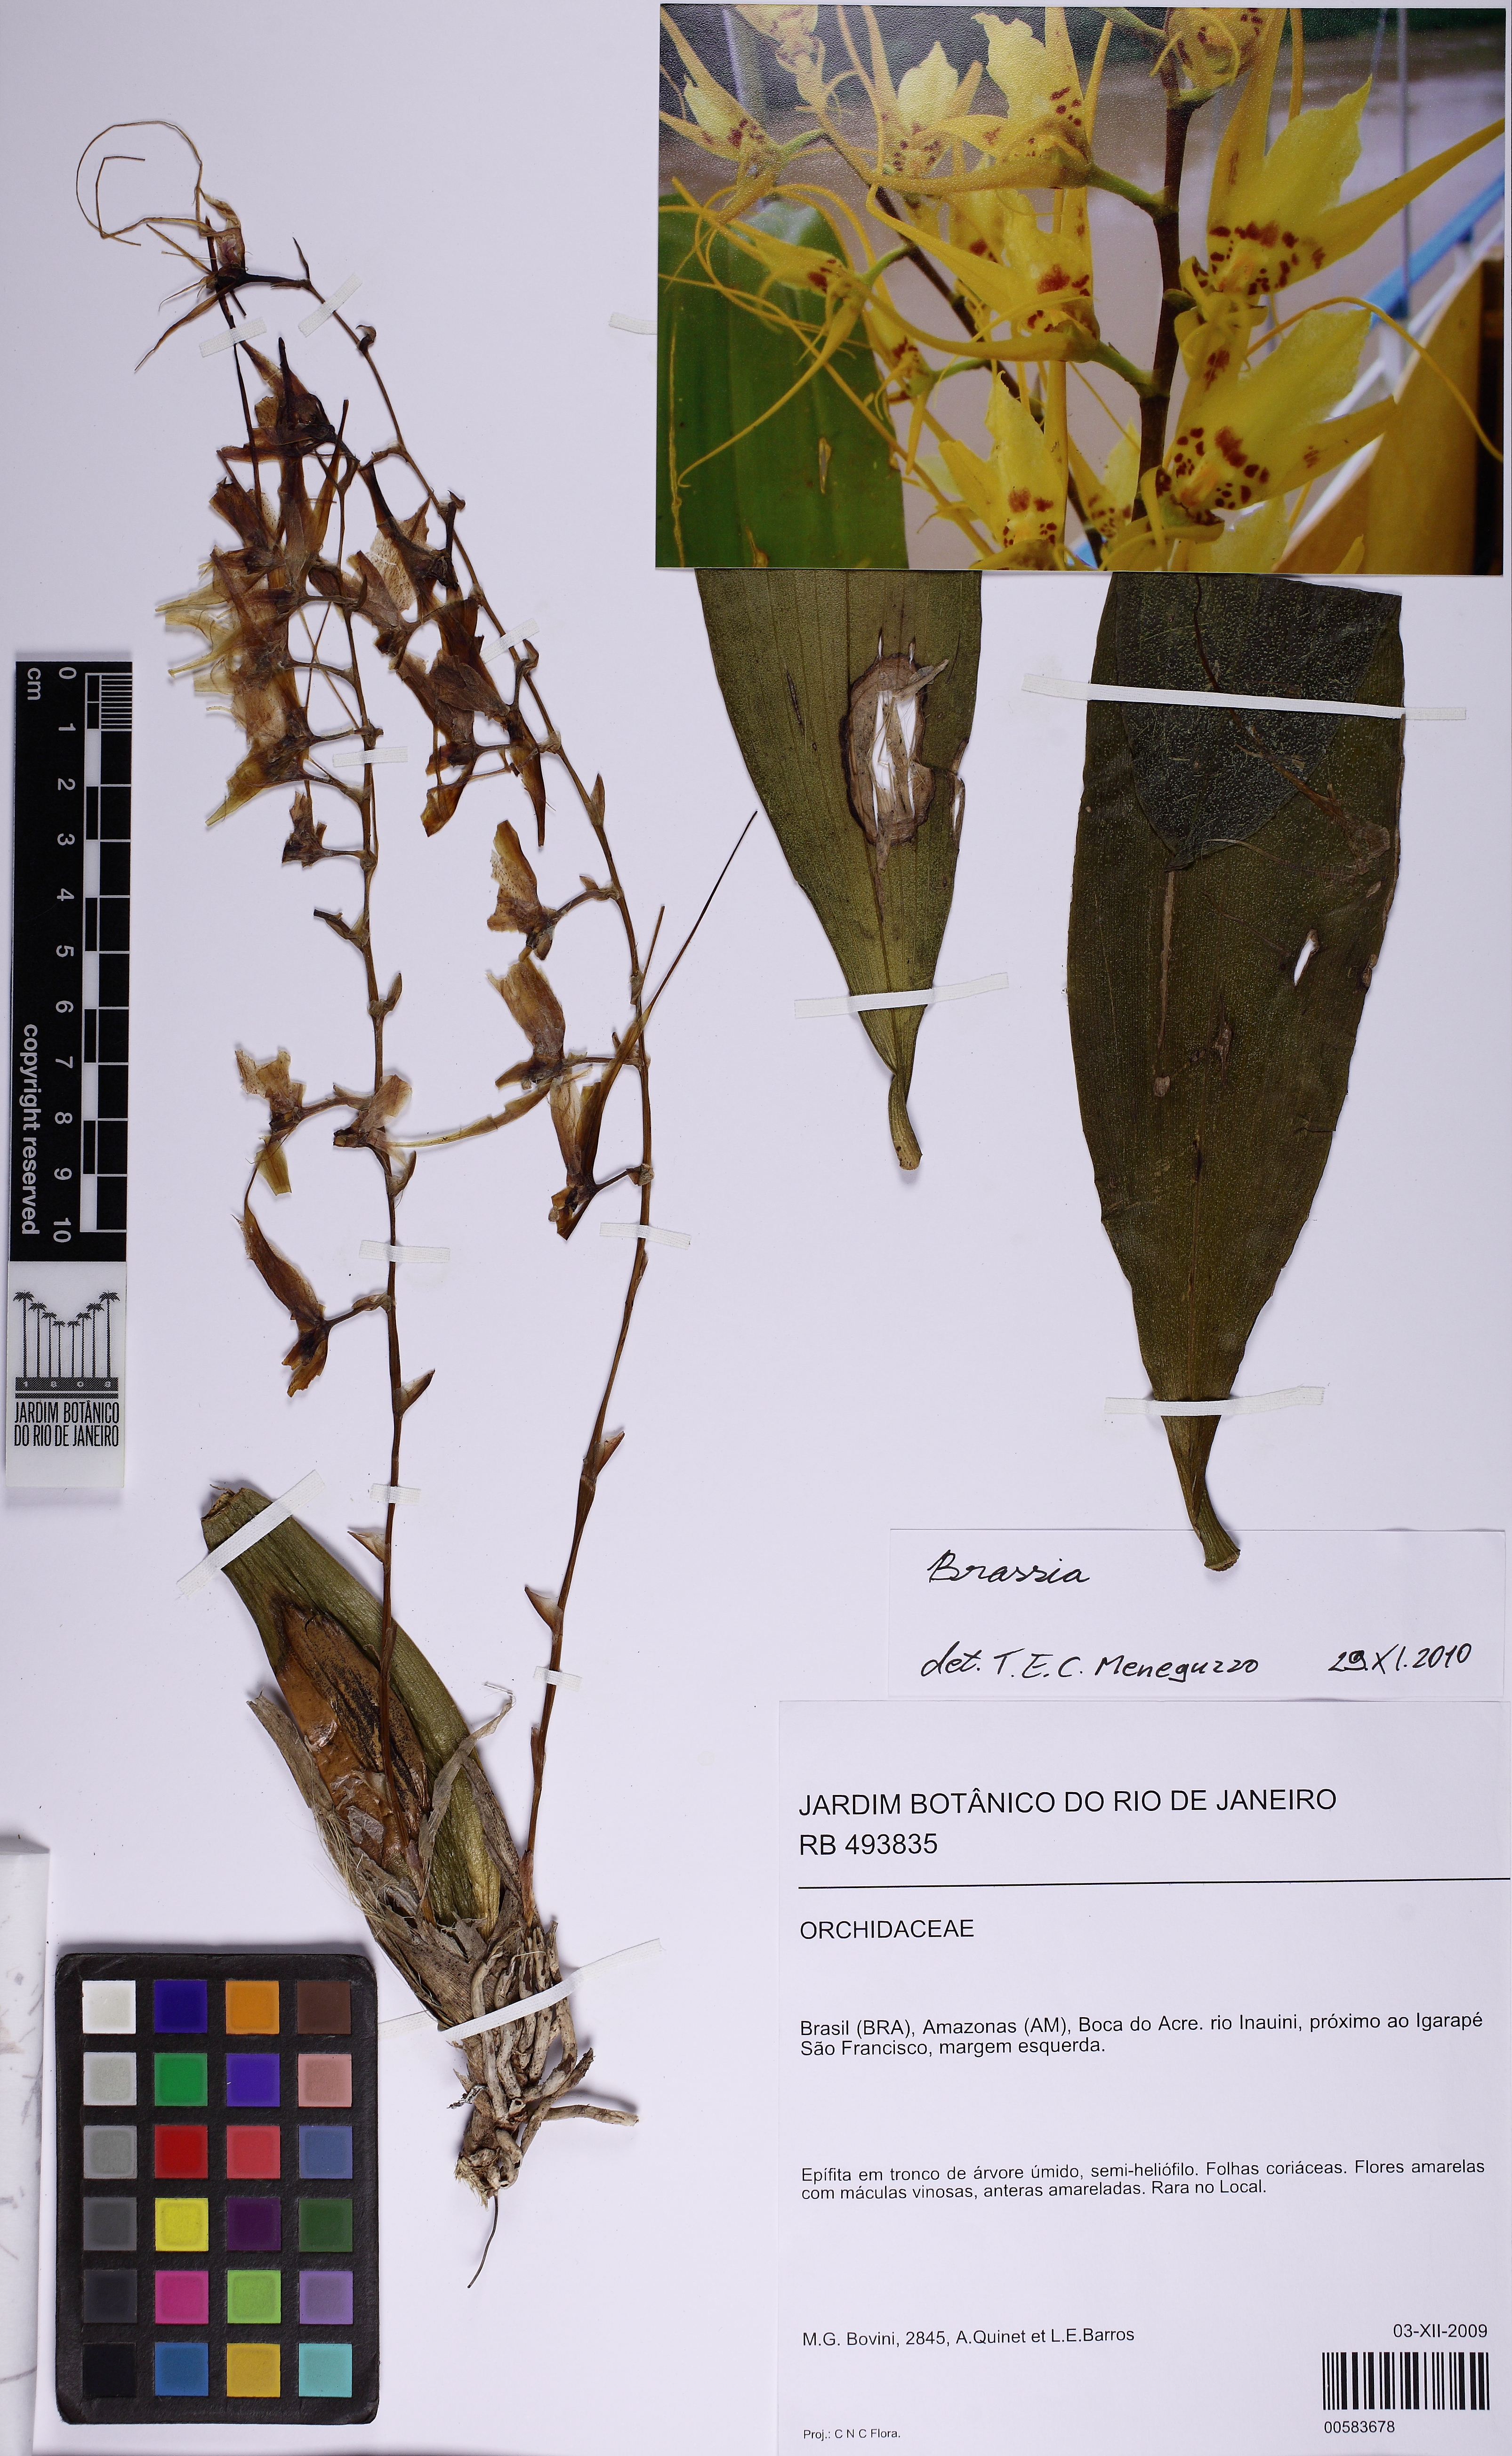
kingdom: Plantae
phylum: Tracheophyta
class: Liliopsida
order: Asparagales
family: Orchidaceae
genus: Brassia
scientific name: Brassia
